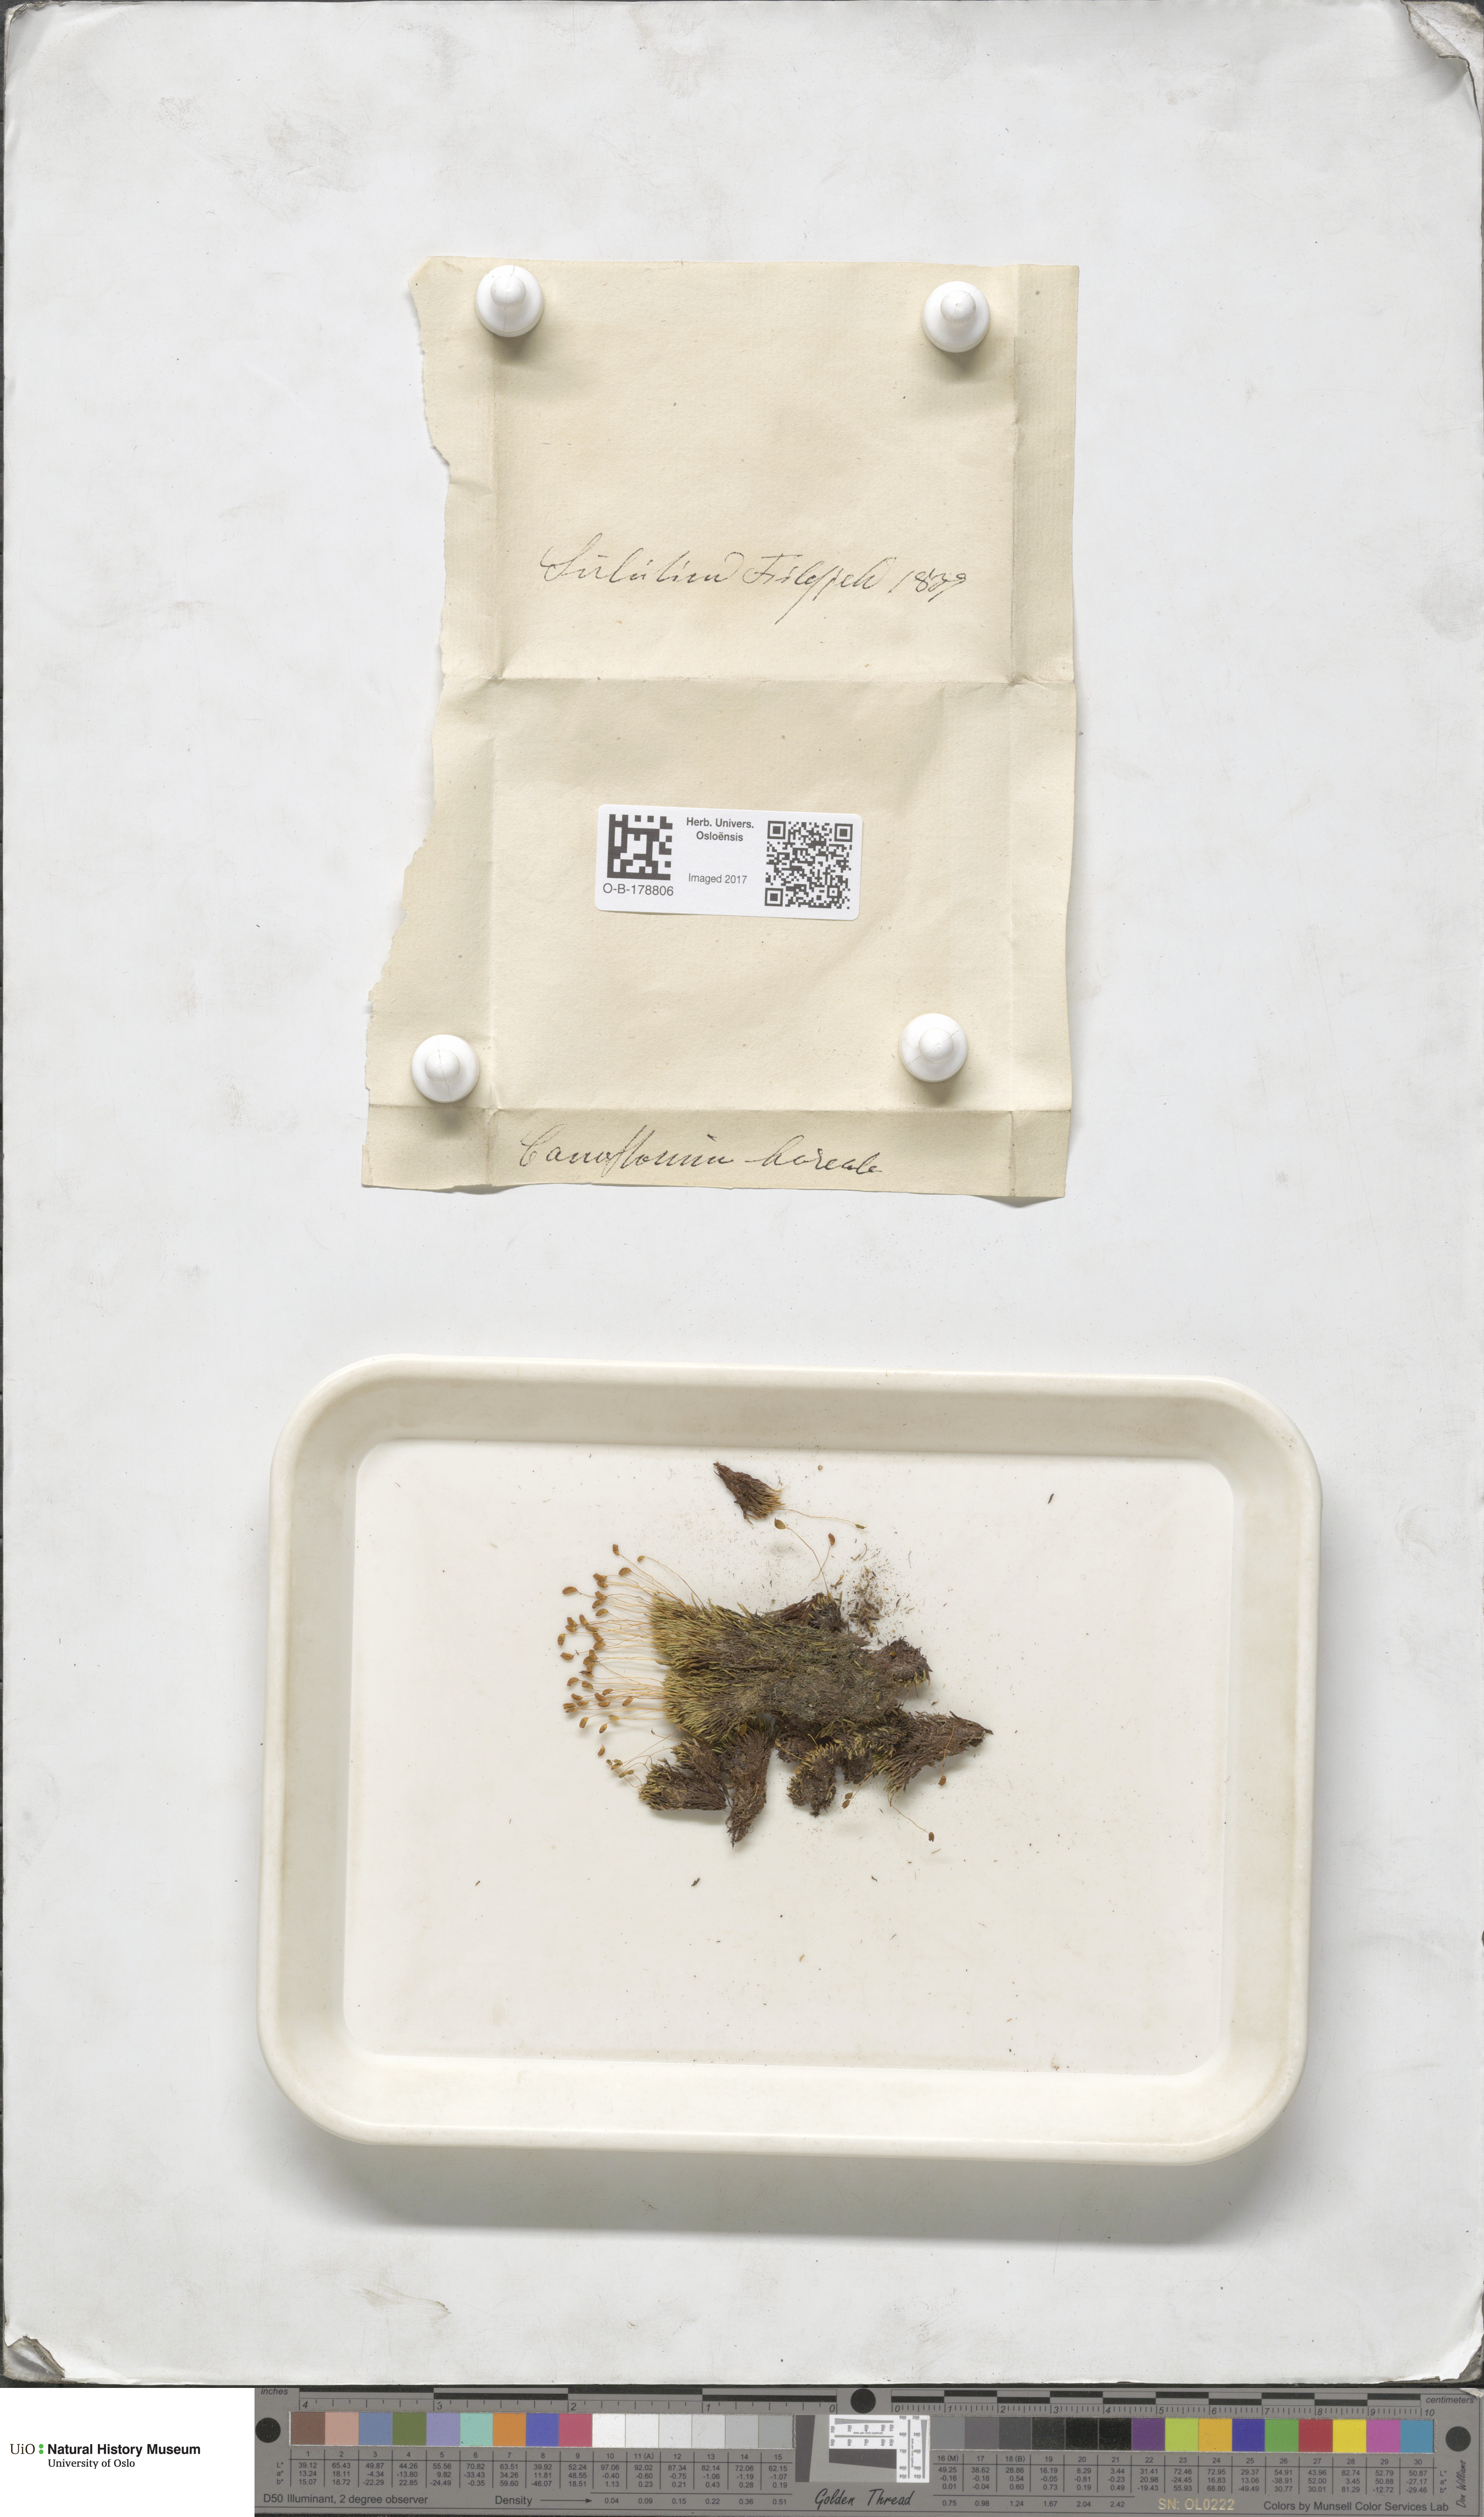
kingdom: Plantae
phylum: Bryophyta
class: Bryopsida
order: Bartramiales
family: Bartramiaceae
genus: Conostomum
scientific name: Conostomum tetragonum
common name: Helmet moss
